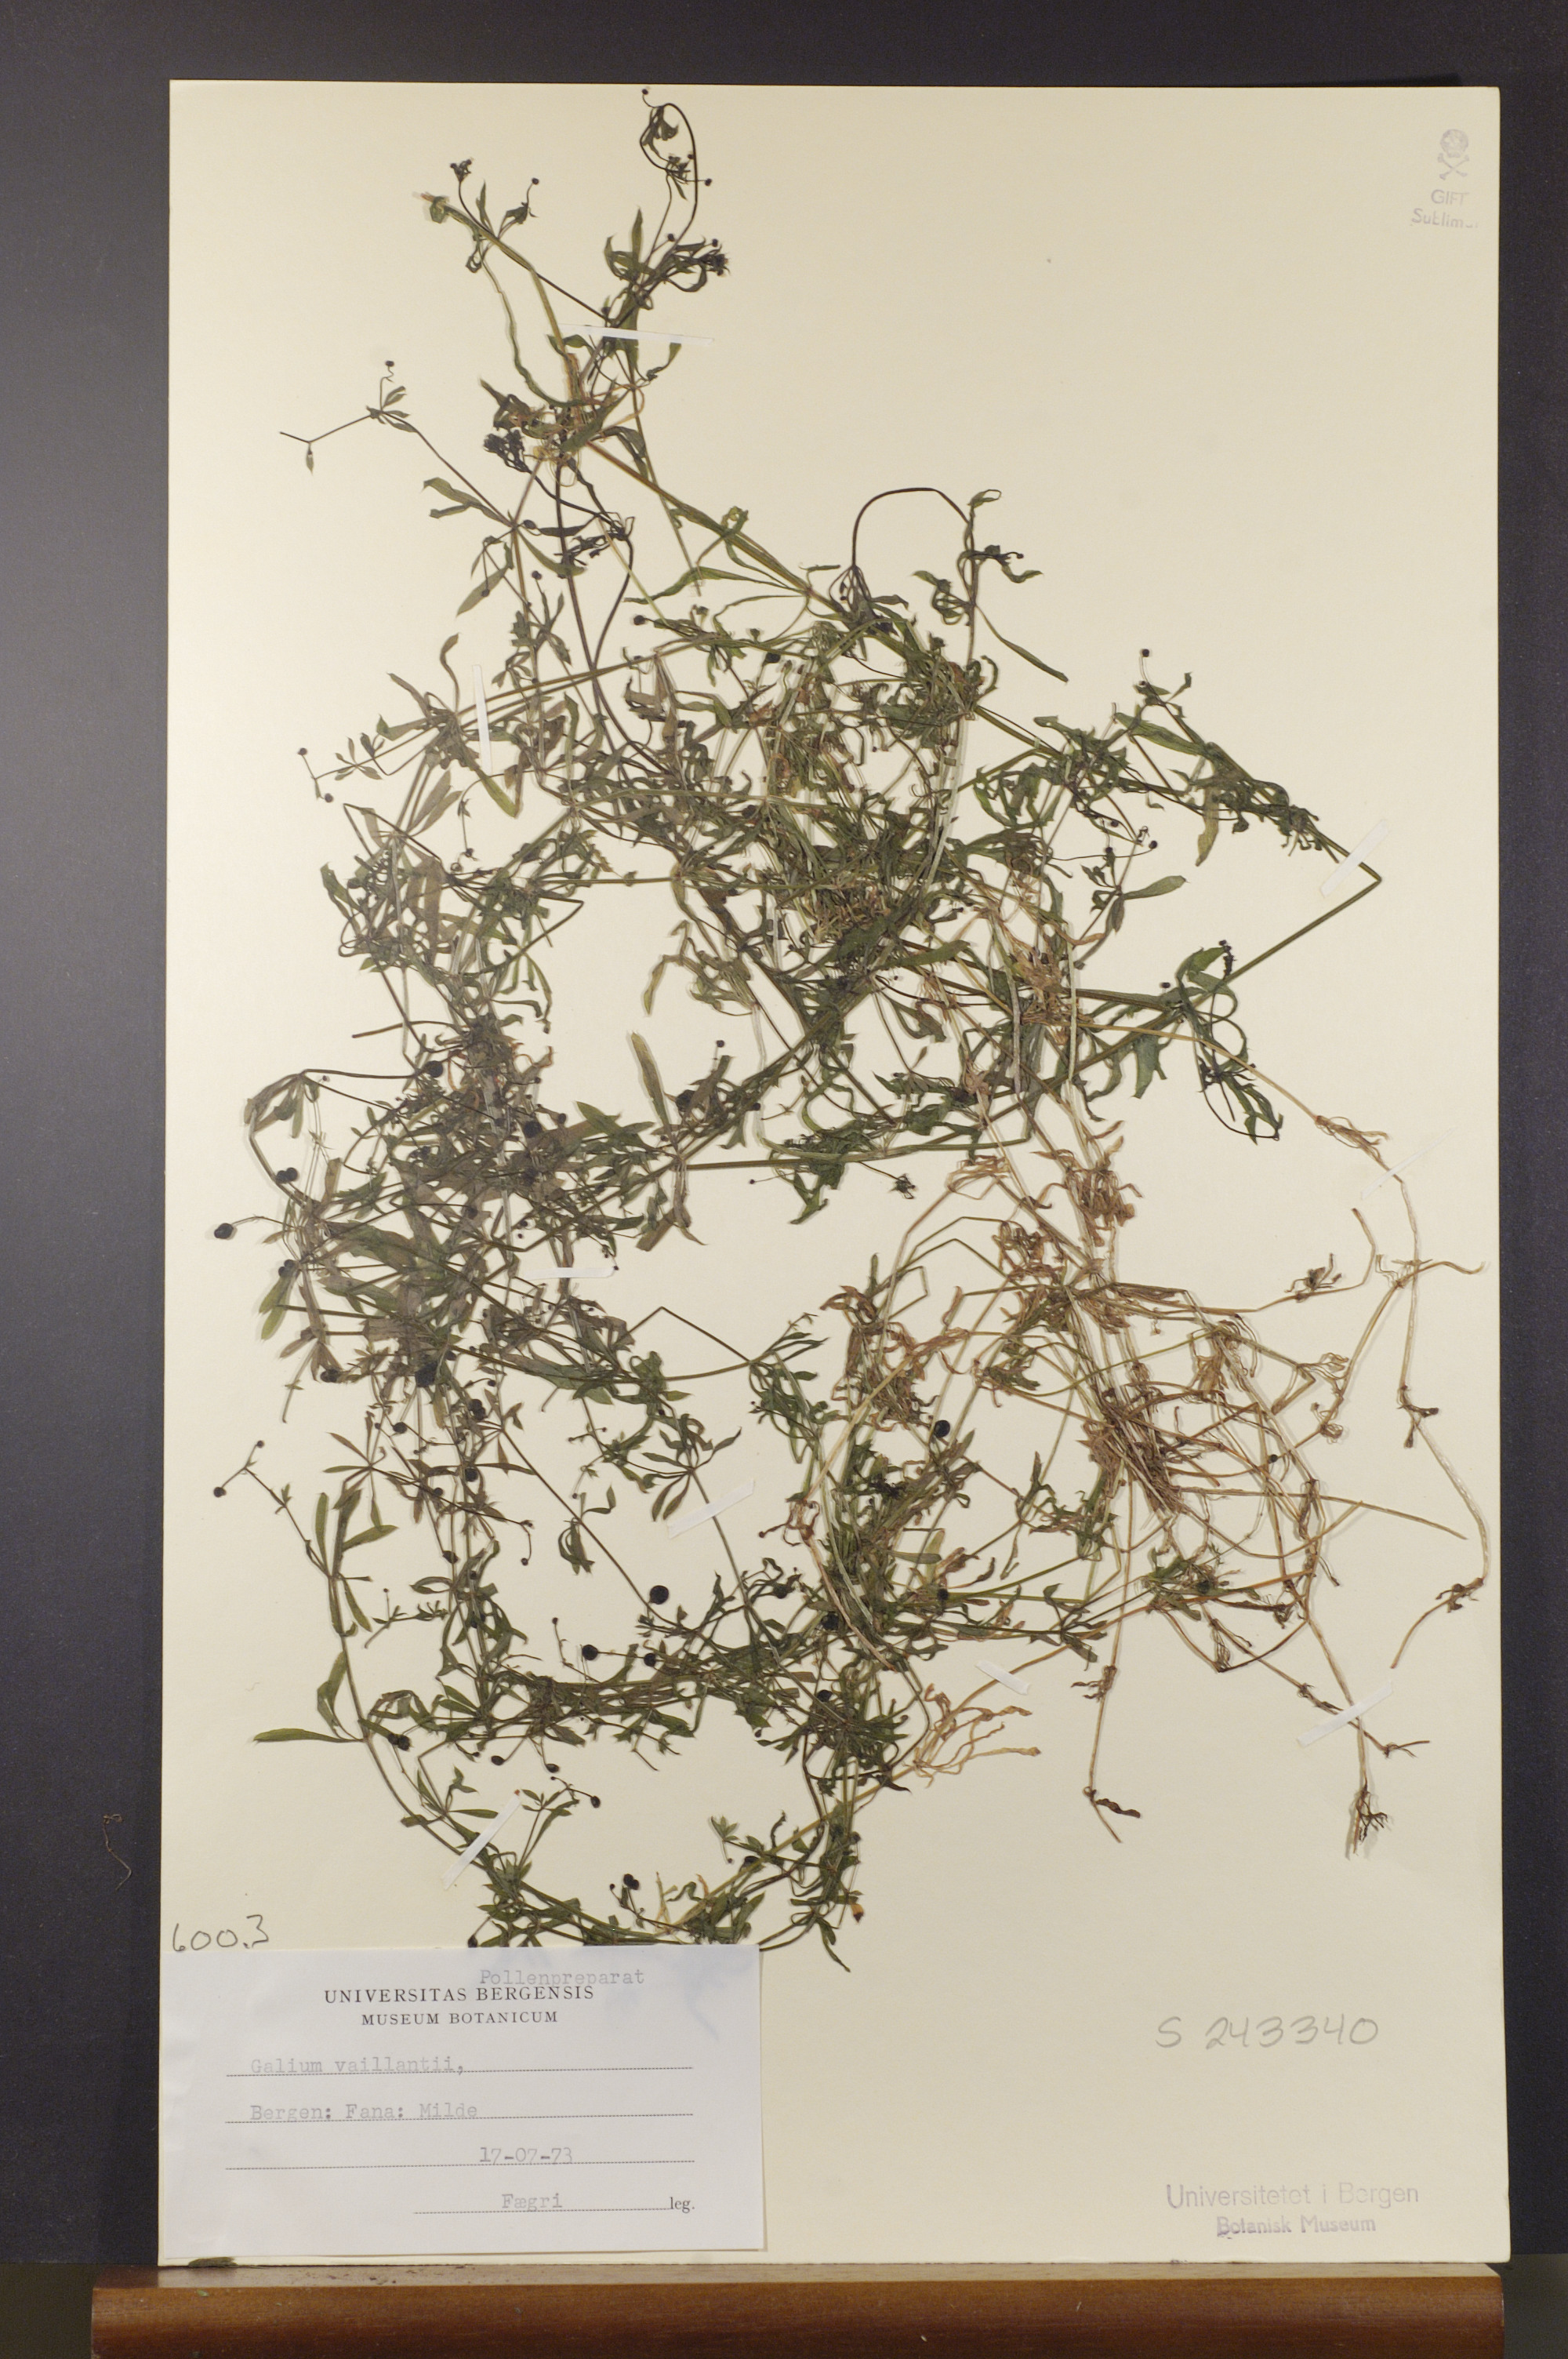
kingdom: Plantae
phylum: Tracheophyta
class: Magnoliopsida
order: Gentianales
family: Rubiaceae
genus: Galium
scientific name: Galium spurium
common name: False cleavers
